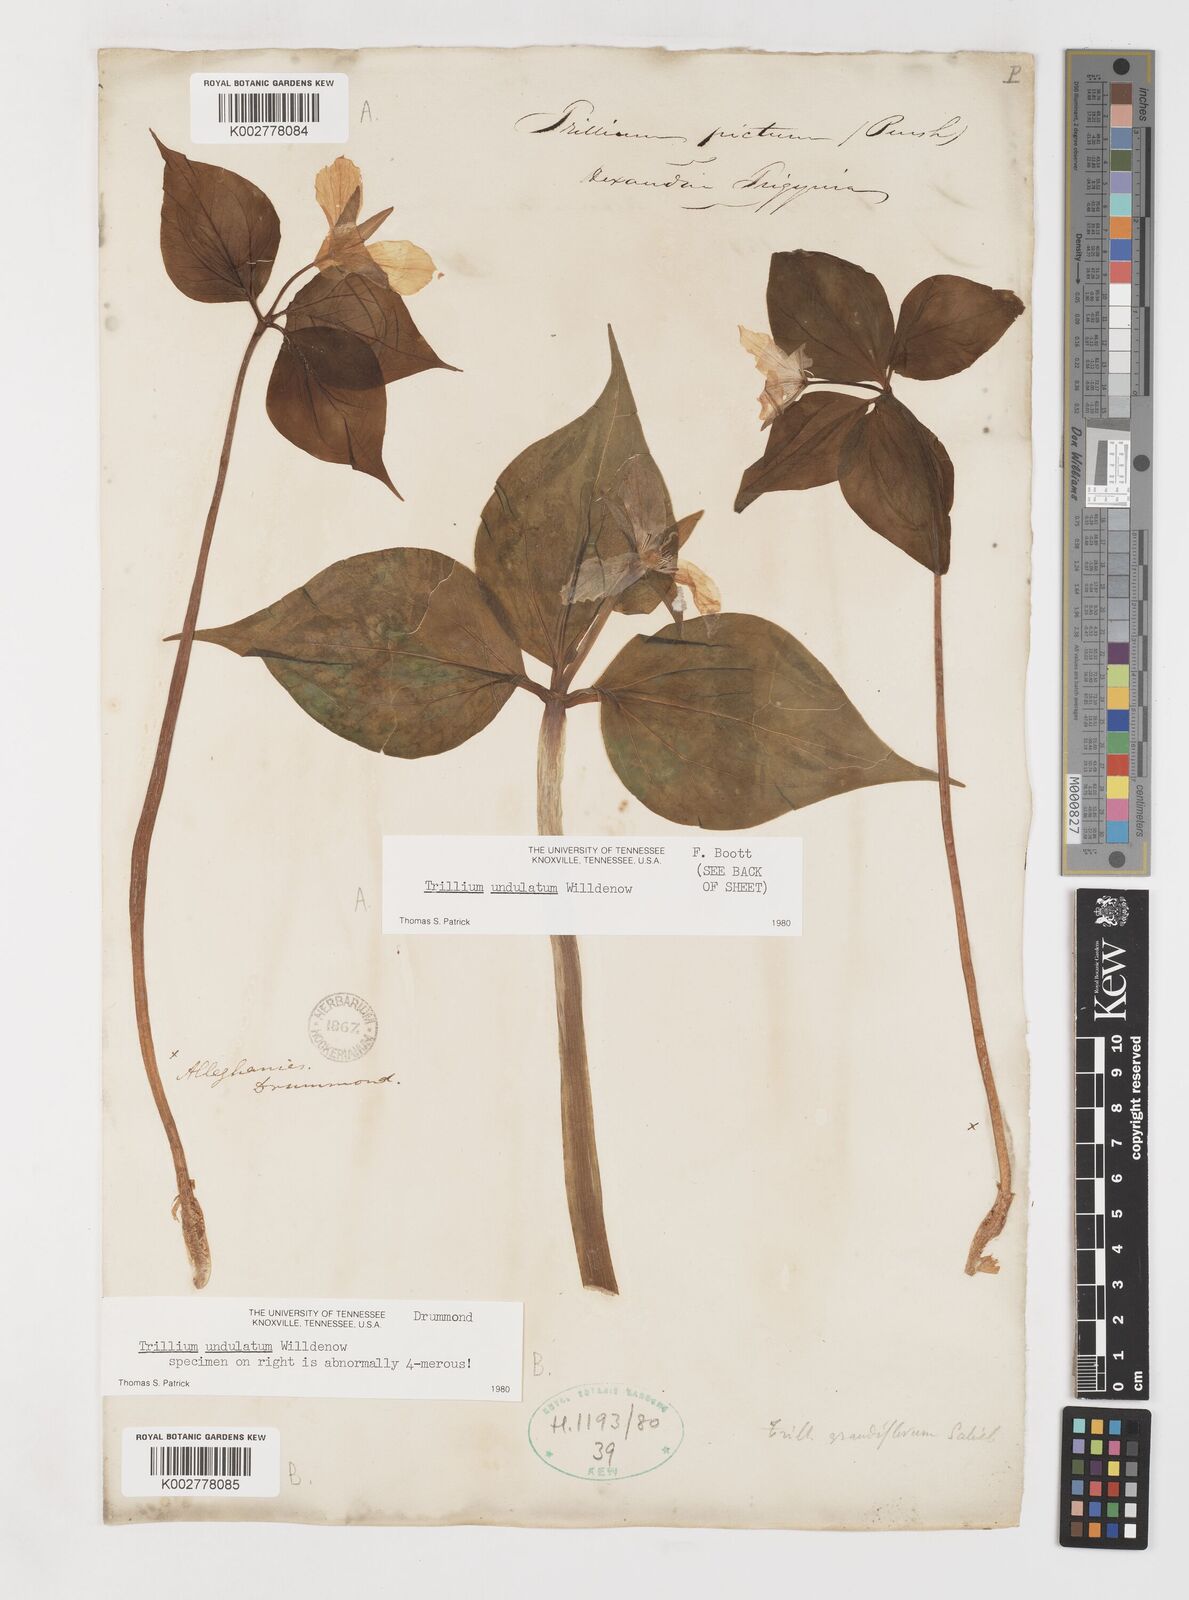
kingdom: Plantae
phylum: Tracheophyta
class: Liliopsida
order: Liliales
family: Melanthiaceae
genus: Trillium
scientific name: Trillium undulatum
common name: Paint trillium
